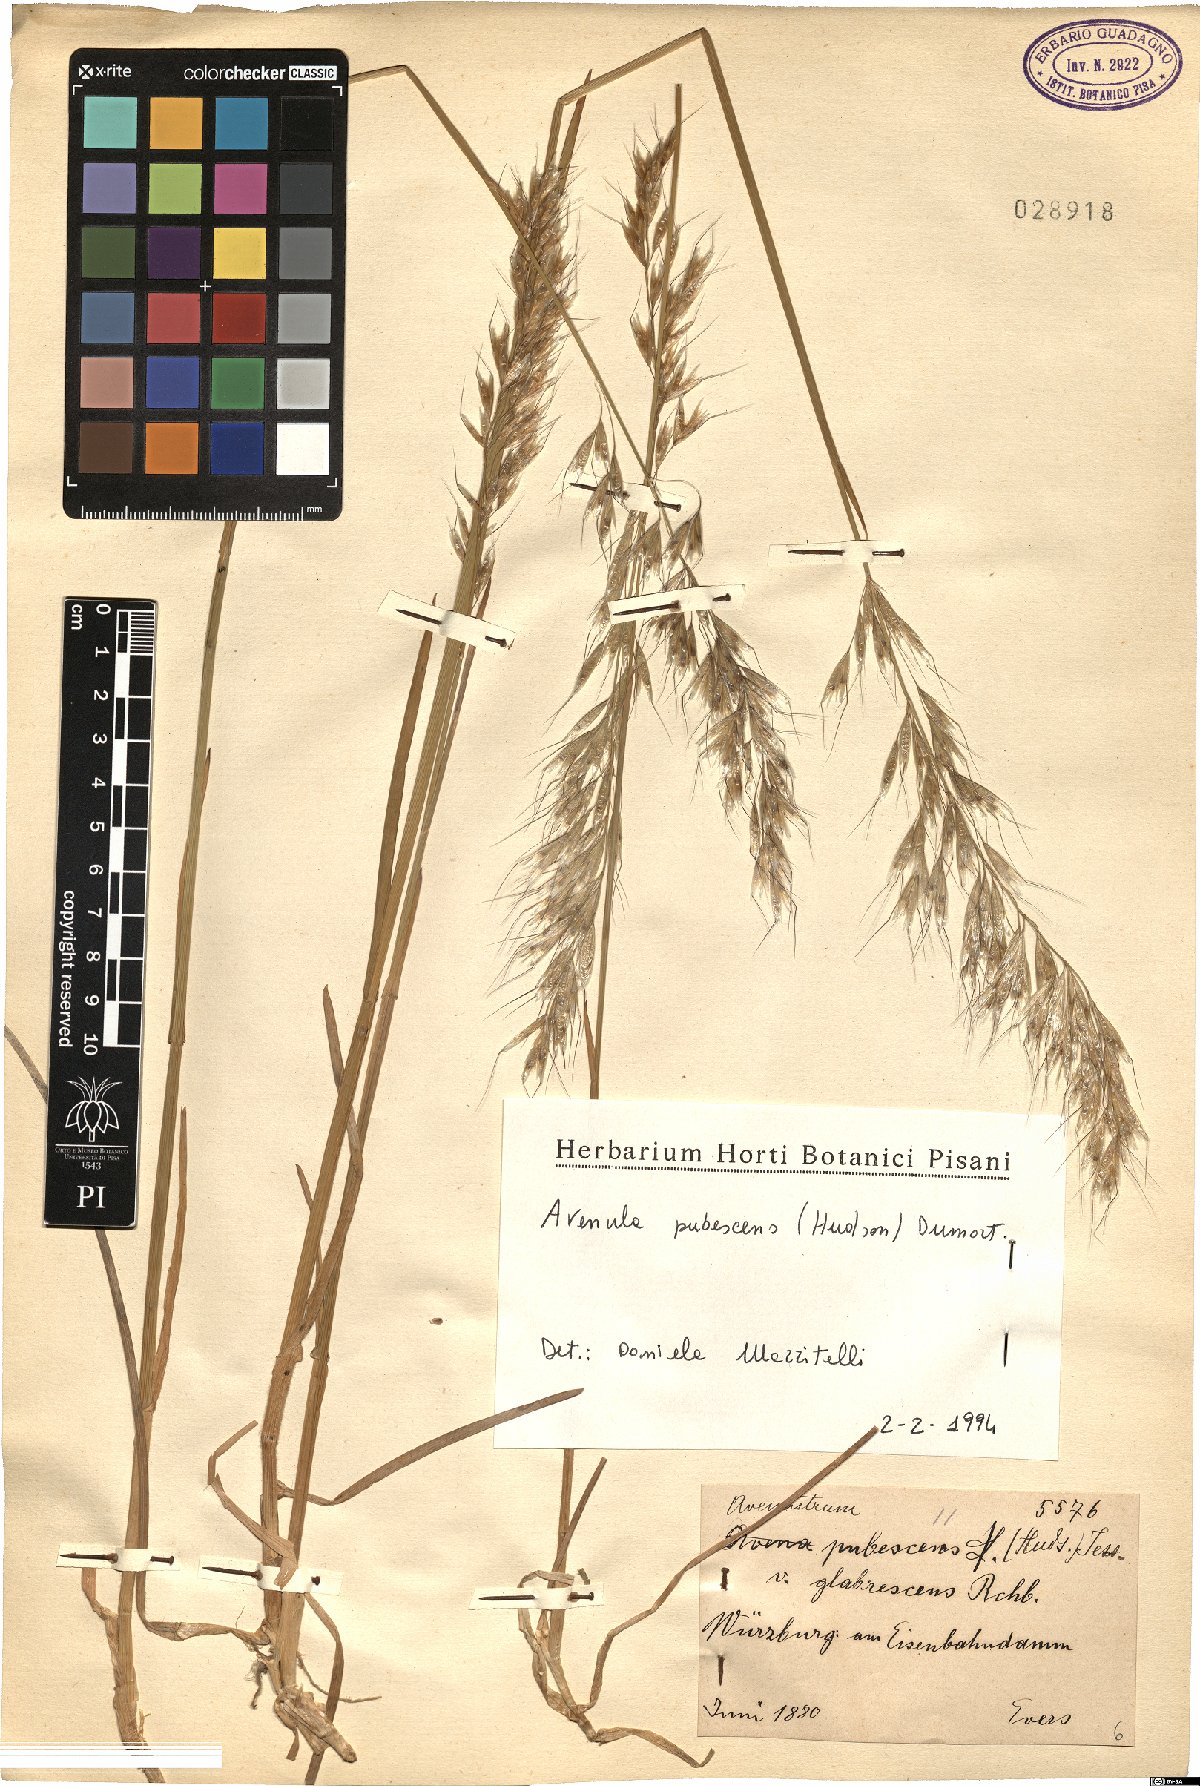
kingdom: Plantae
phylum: Tracheophyta
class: Liliopsida
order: Poales
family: Poaceae
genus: Avenula
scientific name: Avenula pubescens
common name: Downy alpine oatgrass
